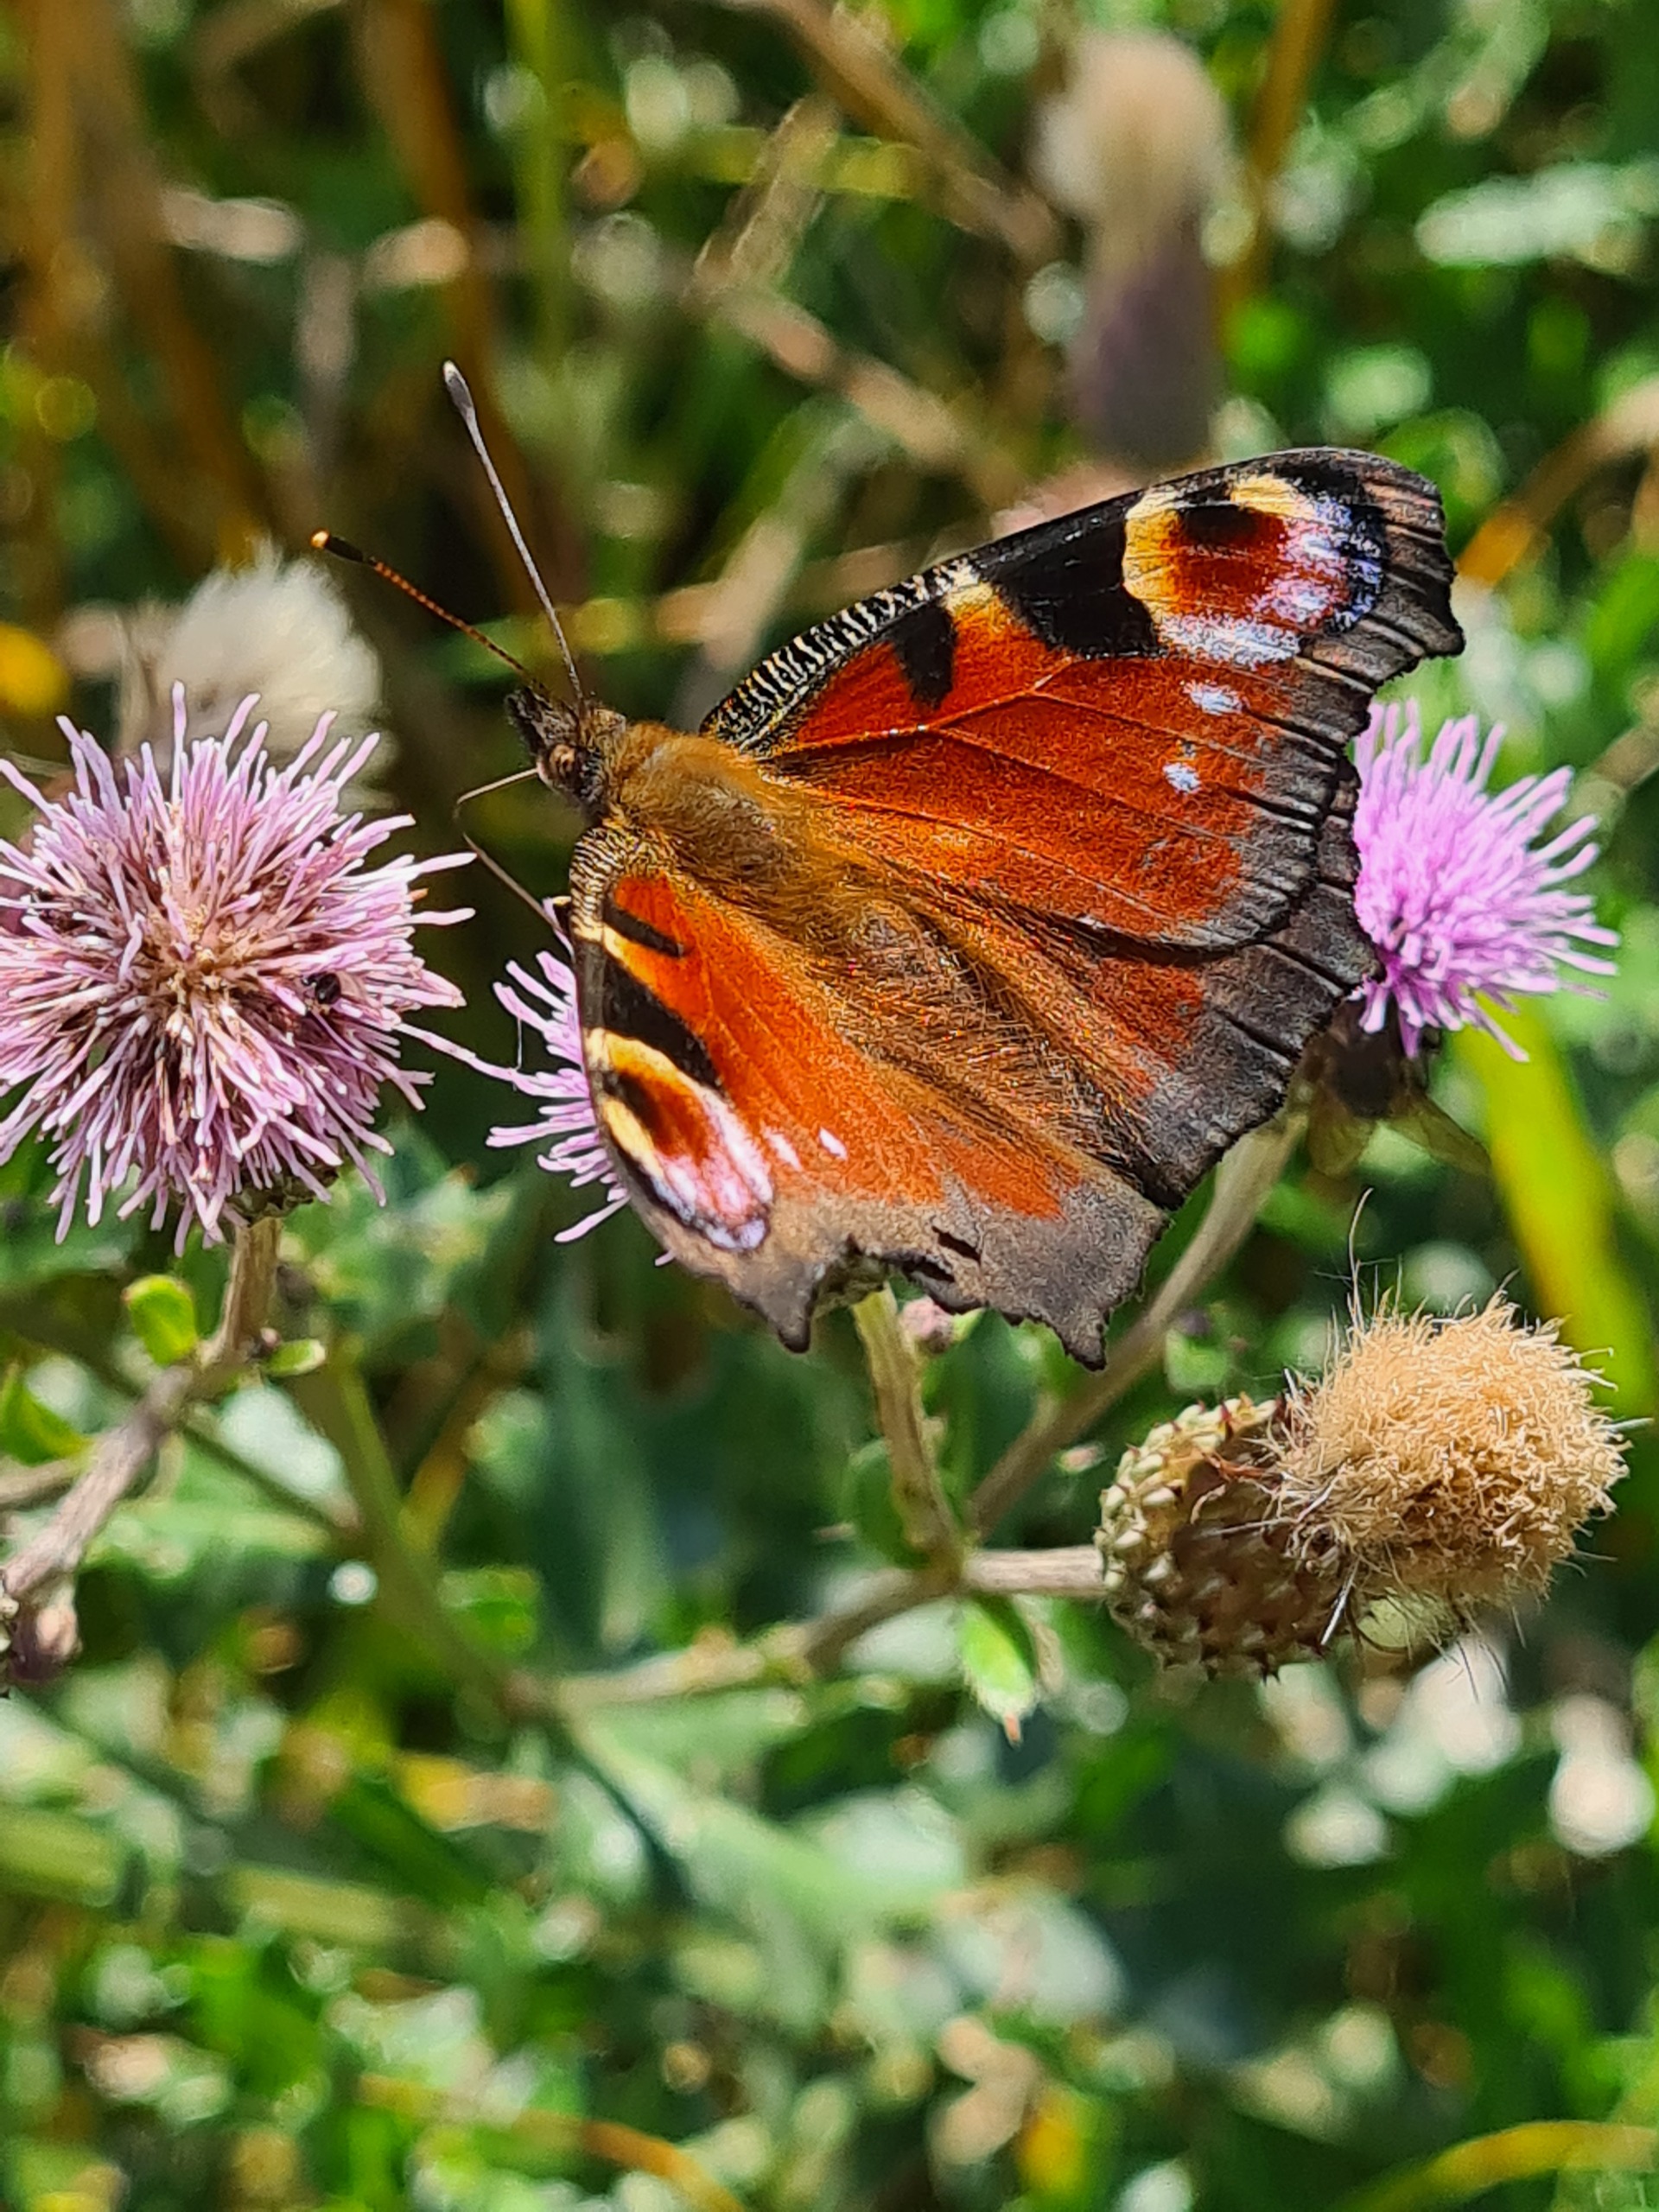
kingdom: Animalia
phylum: Arthropoda
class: Insecta
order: Lepidoptera
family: Nymphalidae
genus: Aglais
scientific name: Aglais io
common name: Dagpåfugleøje
